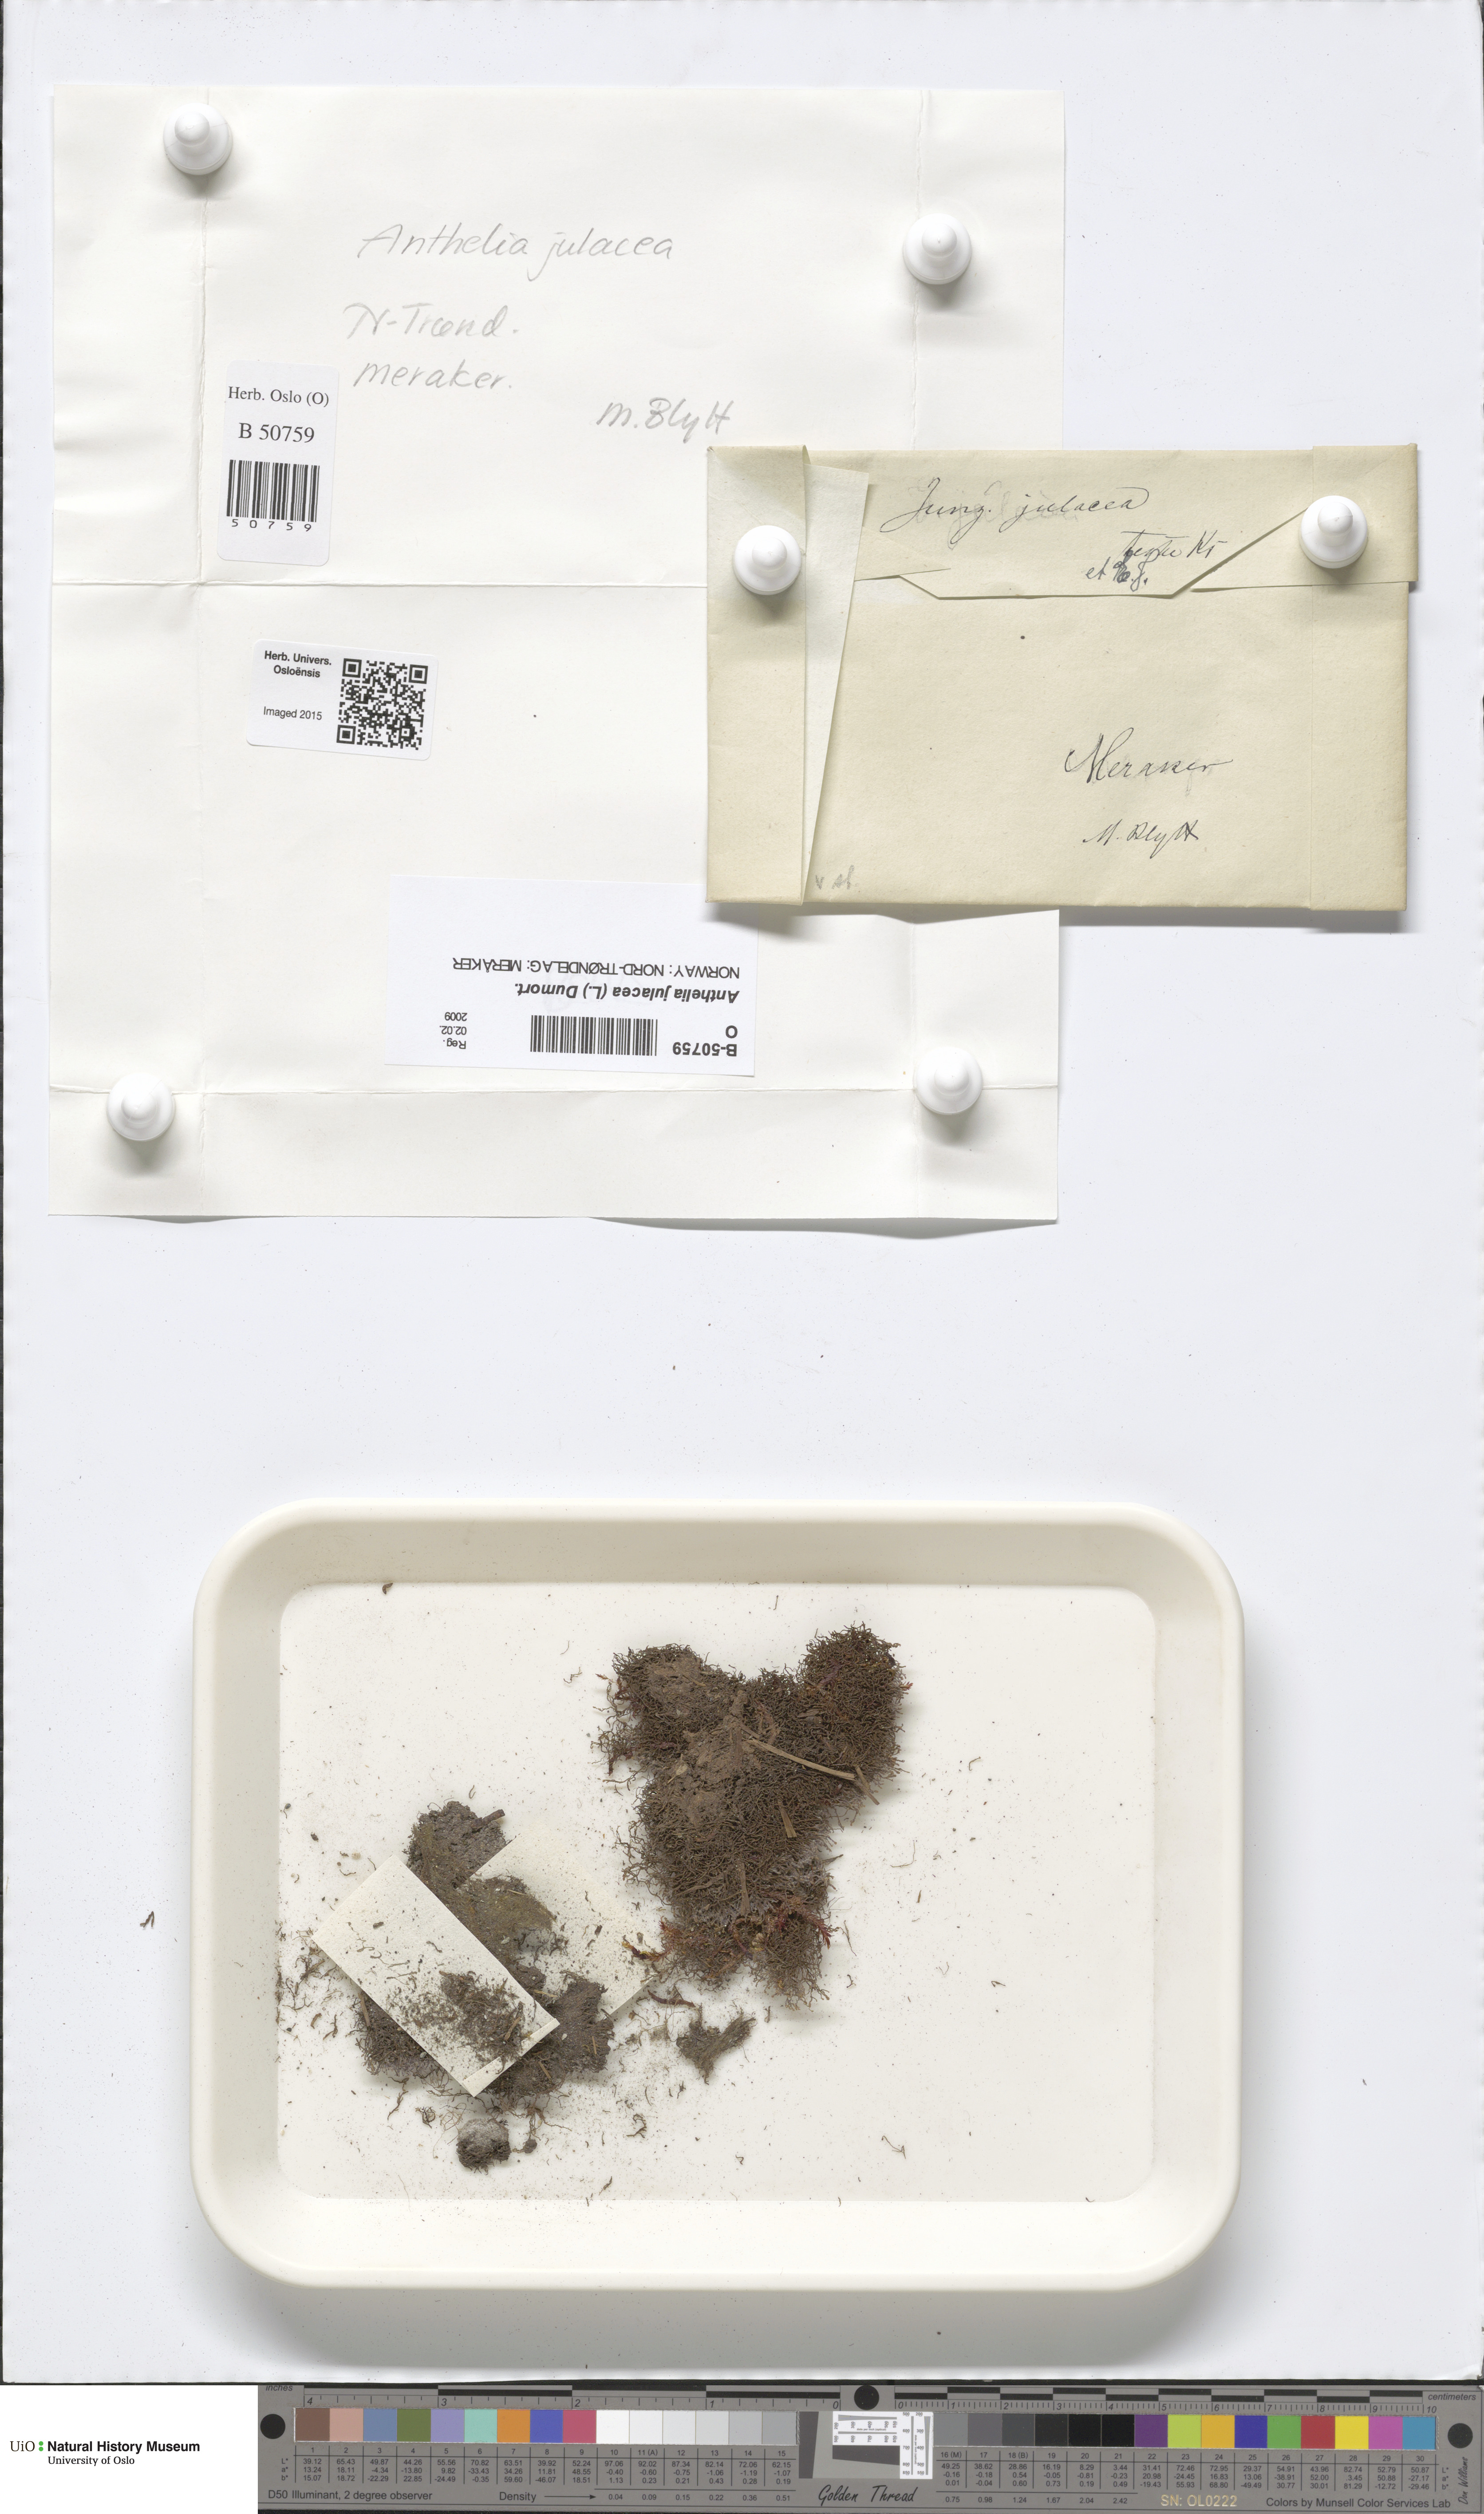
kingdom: Plantae
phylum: Marchantiophyta
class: Jungermanniopsida
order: Jungermanniales
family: Antheliaceae
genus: Anthelia
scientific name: Anthelia julacea
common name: Alpine silverwort
